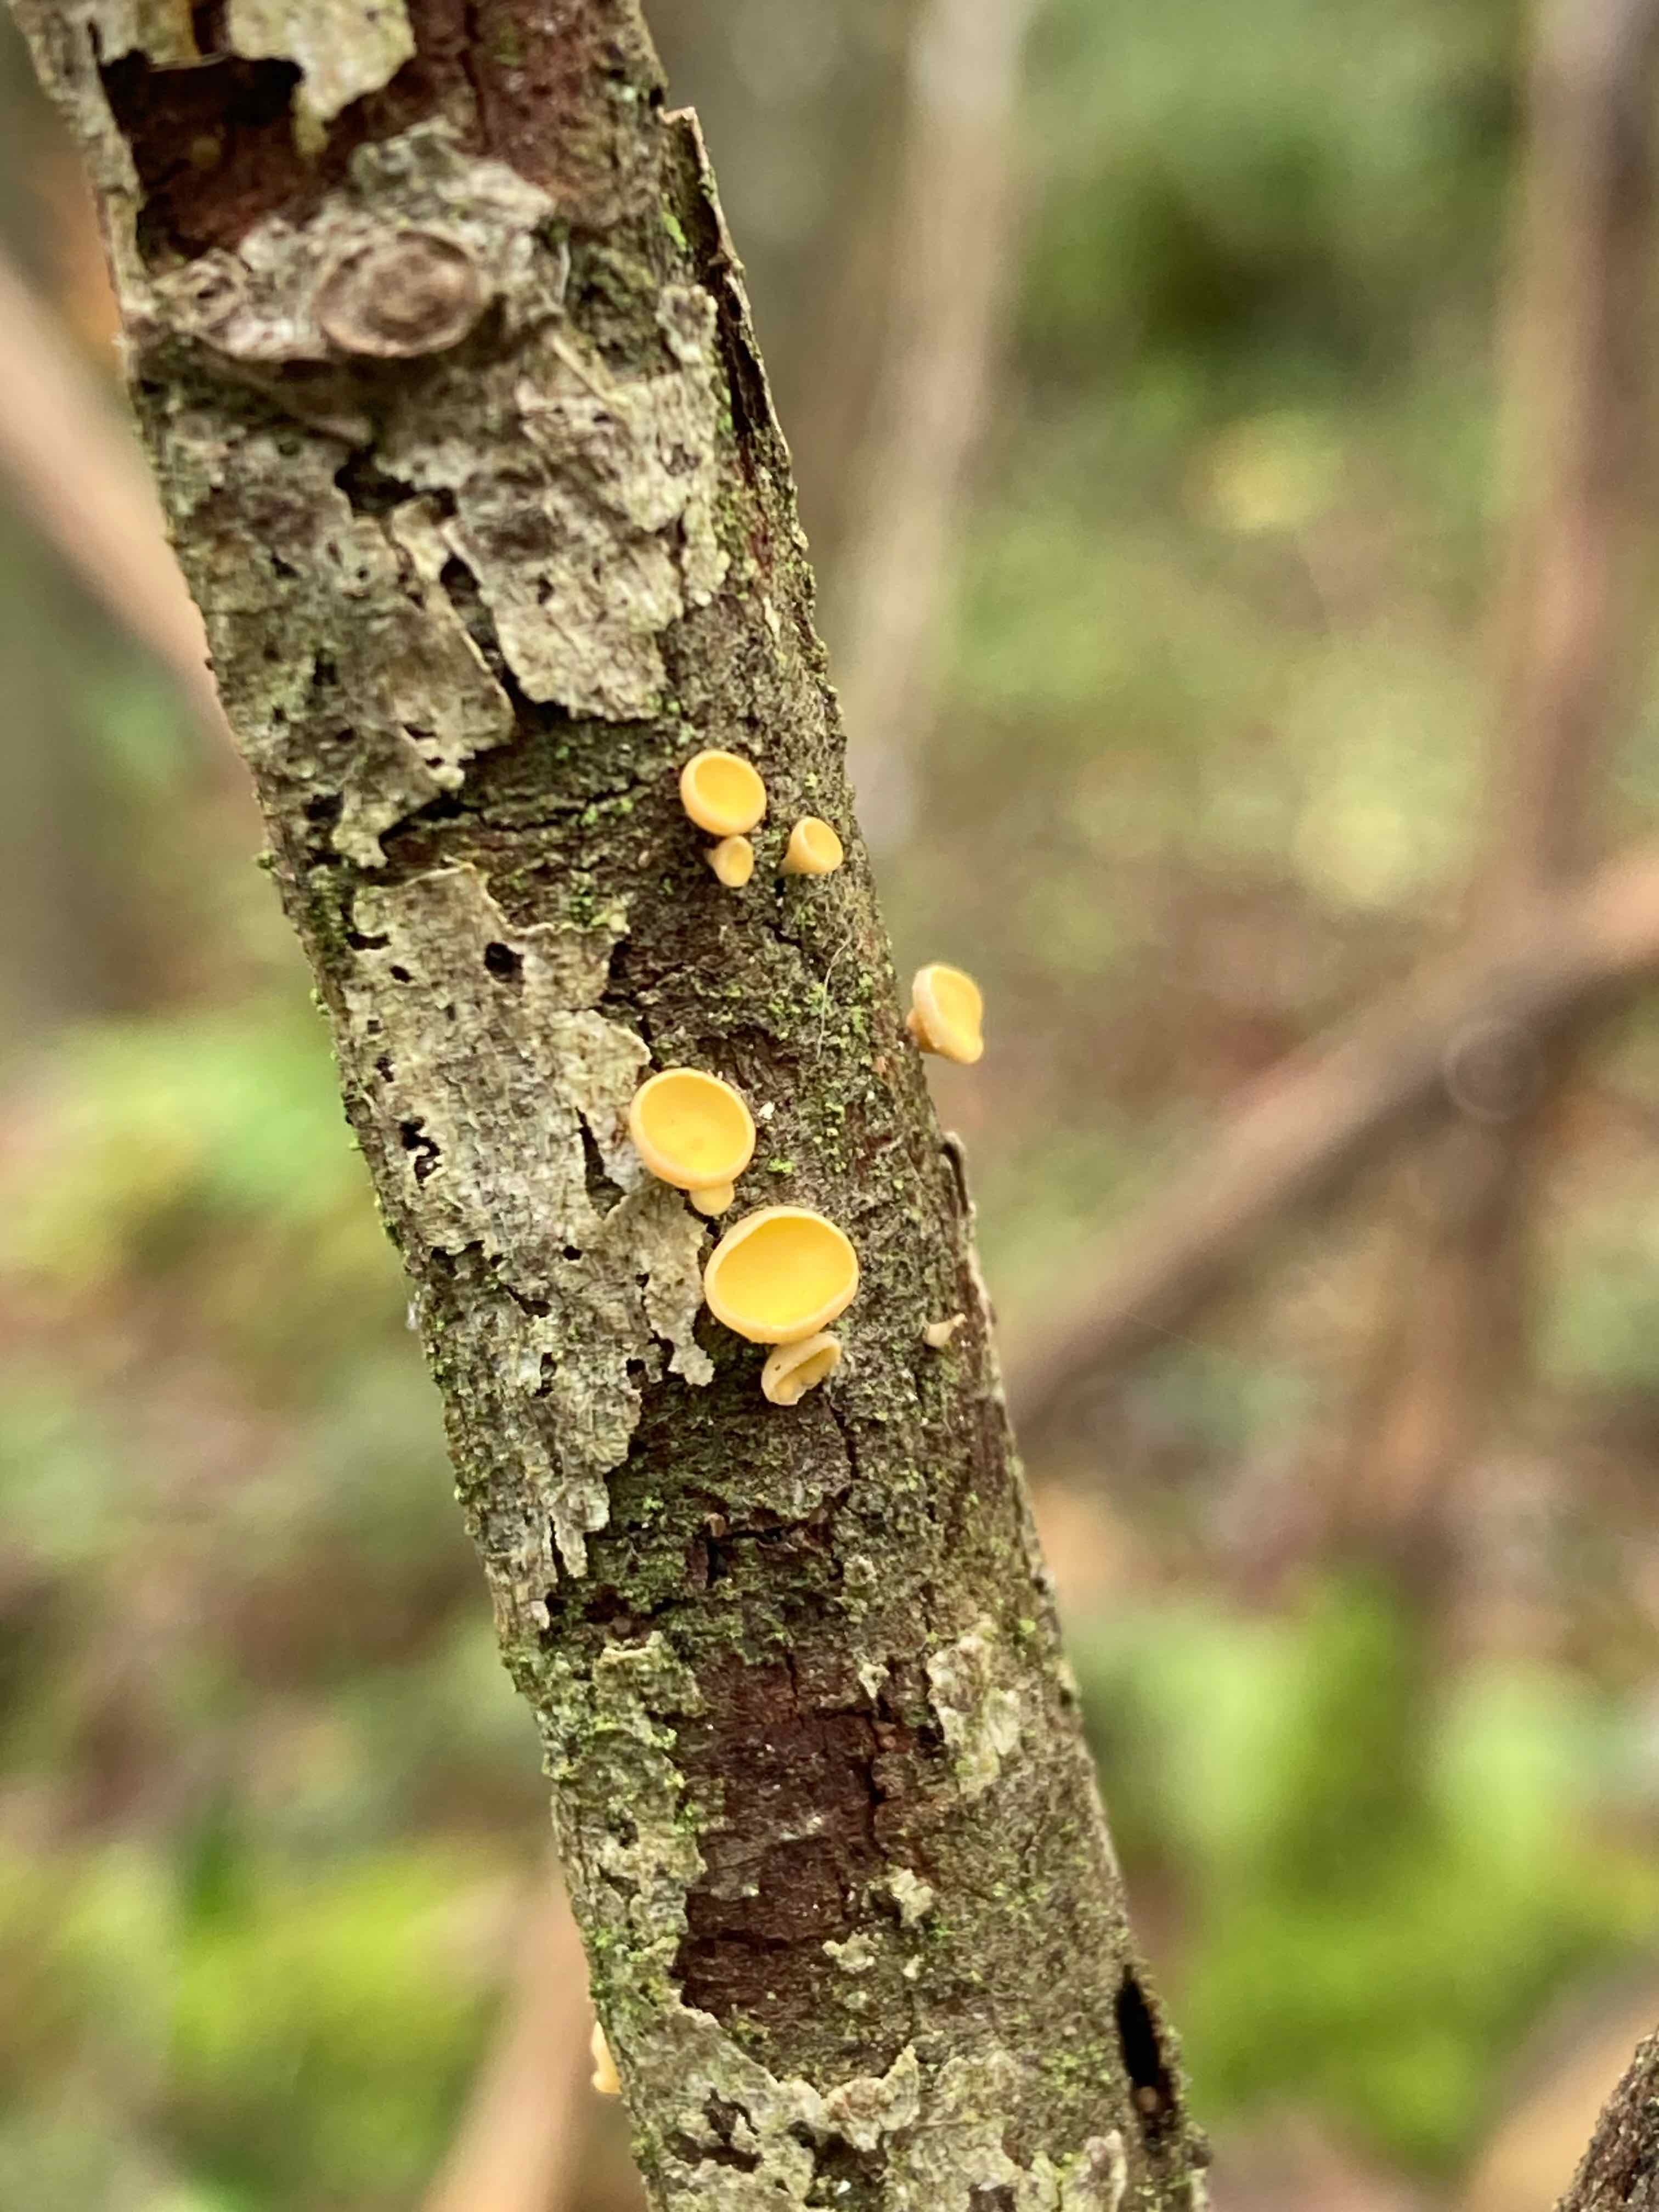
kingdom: Fungi
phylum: Ascomycota
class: Leotiomycetes
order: Helotiales
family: Helotiaceae
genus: Hymenoscyphus
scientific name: Hymenoscyphus
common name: stilkskive
